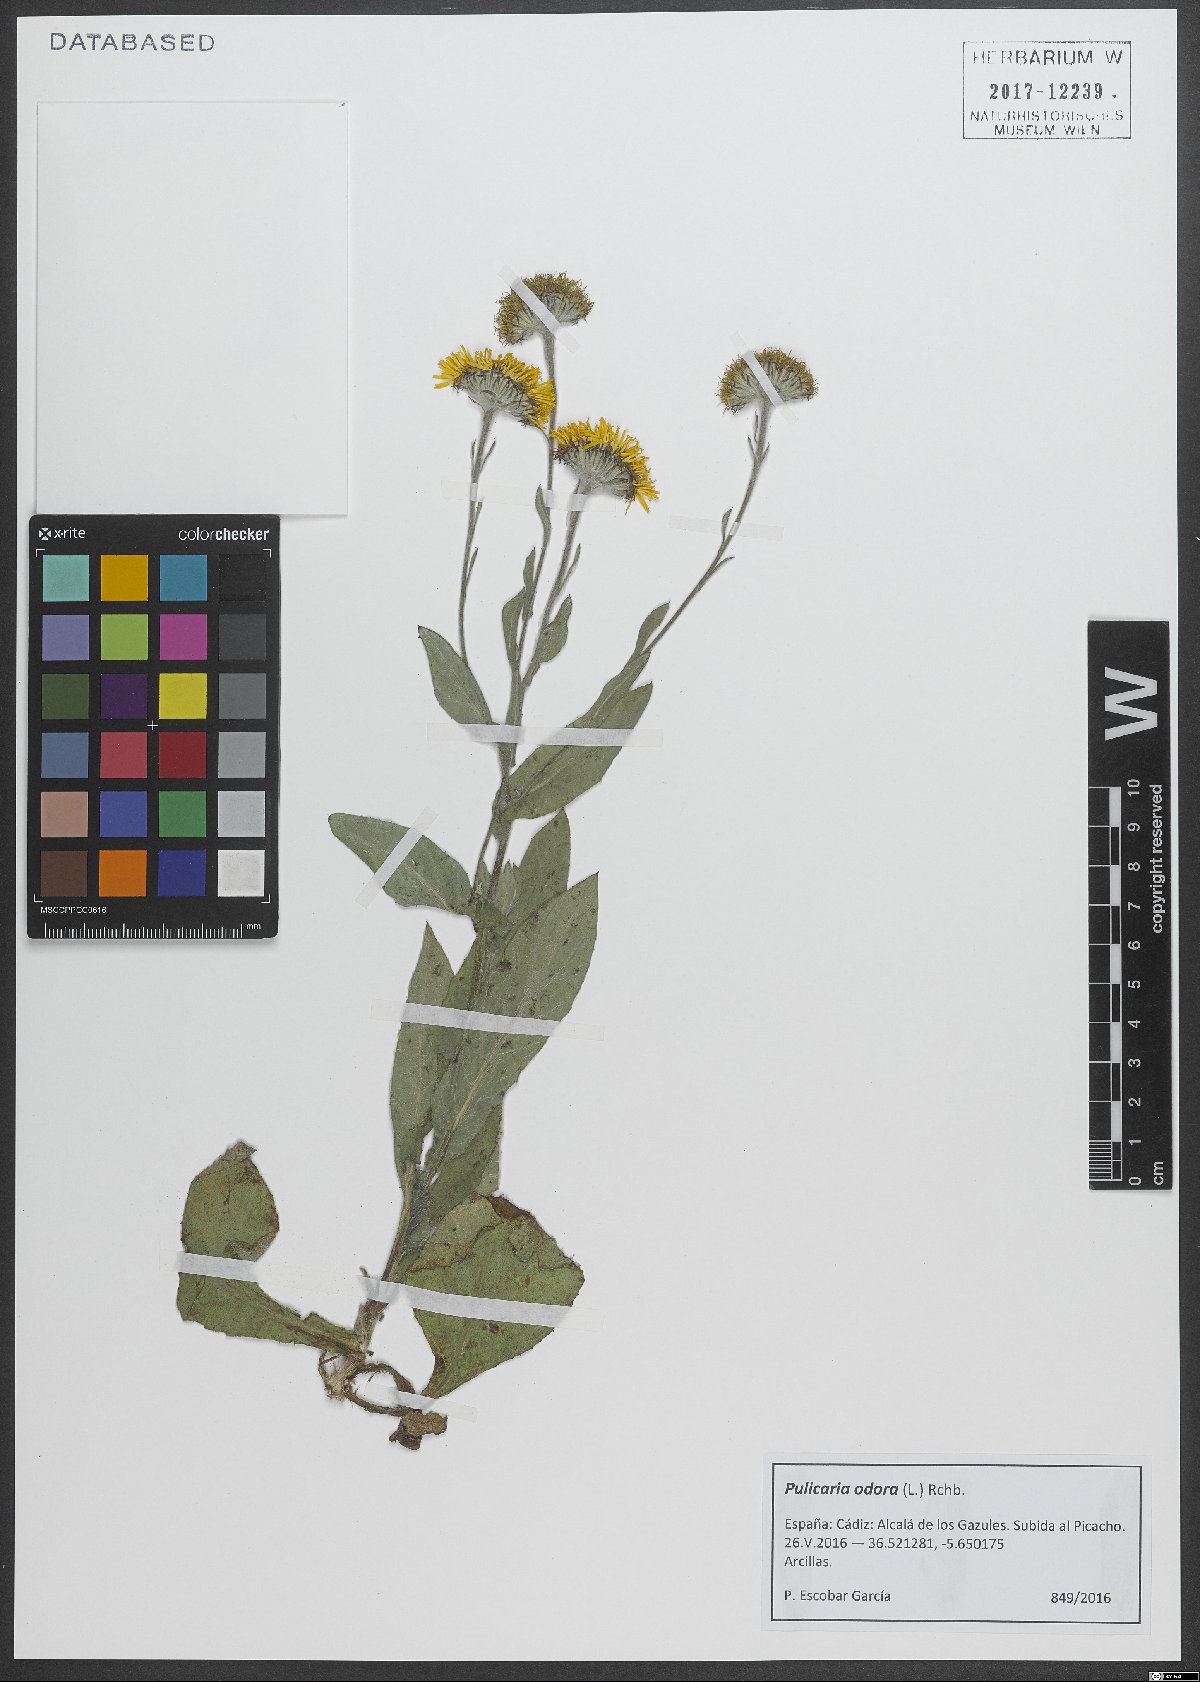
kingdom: Plantae
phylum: Tracheophyta
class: Magnoliopsida
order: Asterales
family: Asteraceae
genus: Pulicaria
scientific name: Pulicaria odora
